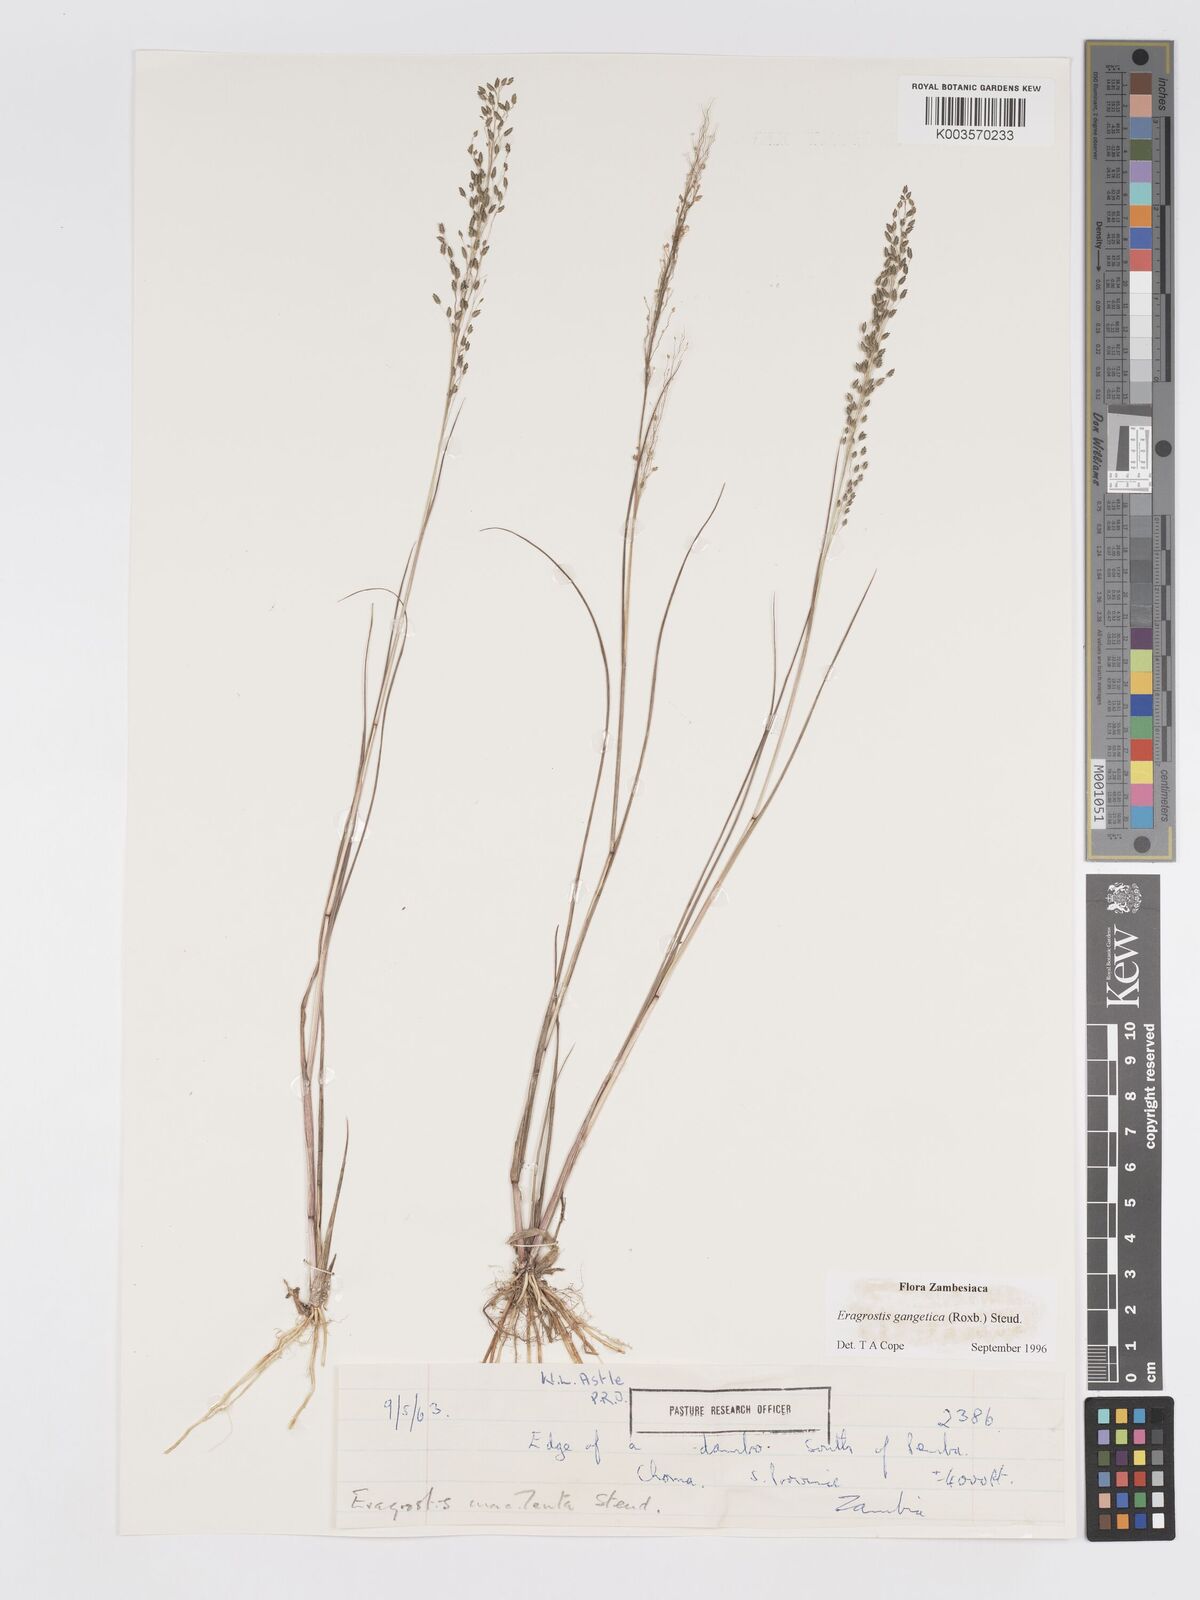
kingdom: Plantae
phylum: Tracheophyta
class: Liliopsida
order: Poales
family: Poaceae
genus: Eragrostis
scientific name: Eragrostis gangetica
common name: Slimflower lovegrass
